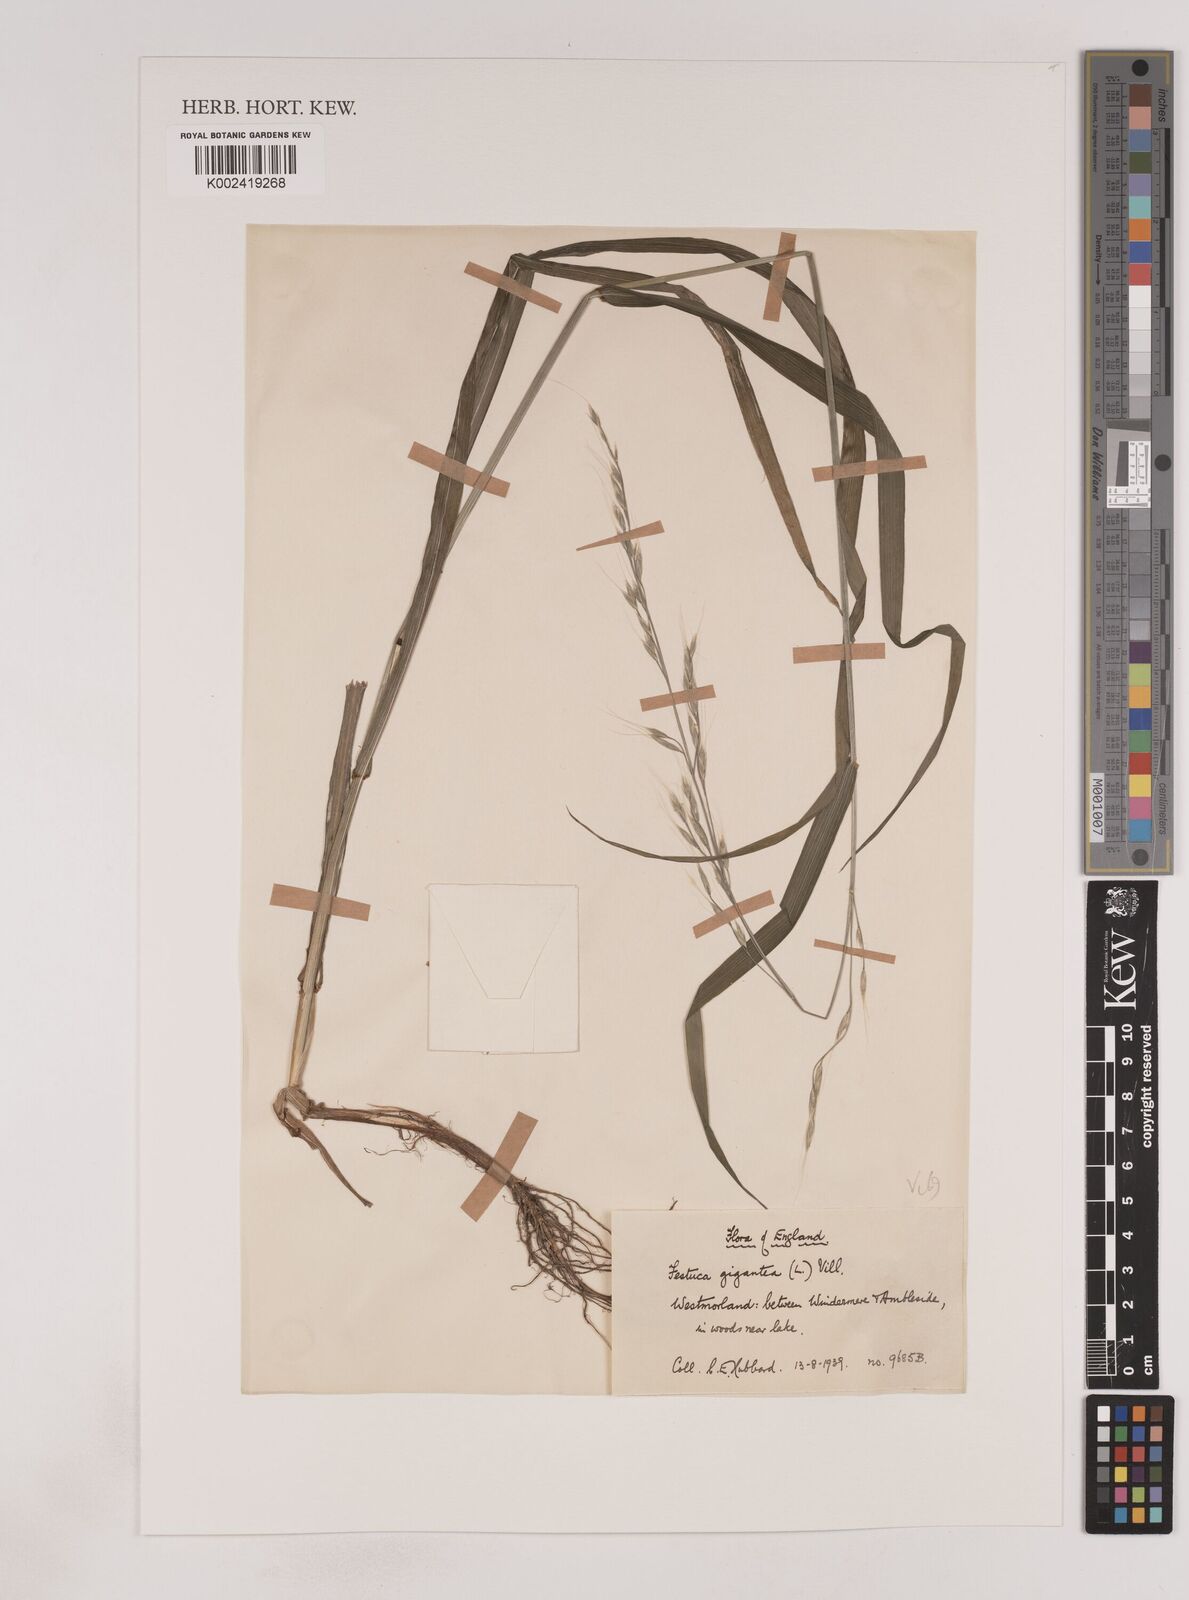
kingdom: Plantae
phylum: Tracheophyta
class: Liliopsida
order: Poales
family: Poaceae
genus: Lolium
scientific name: Lolium giganteum
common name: Giant fescue
